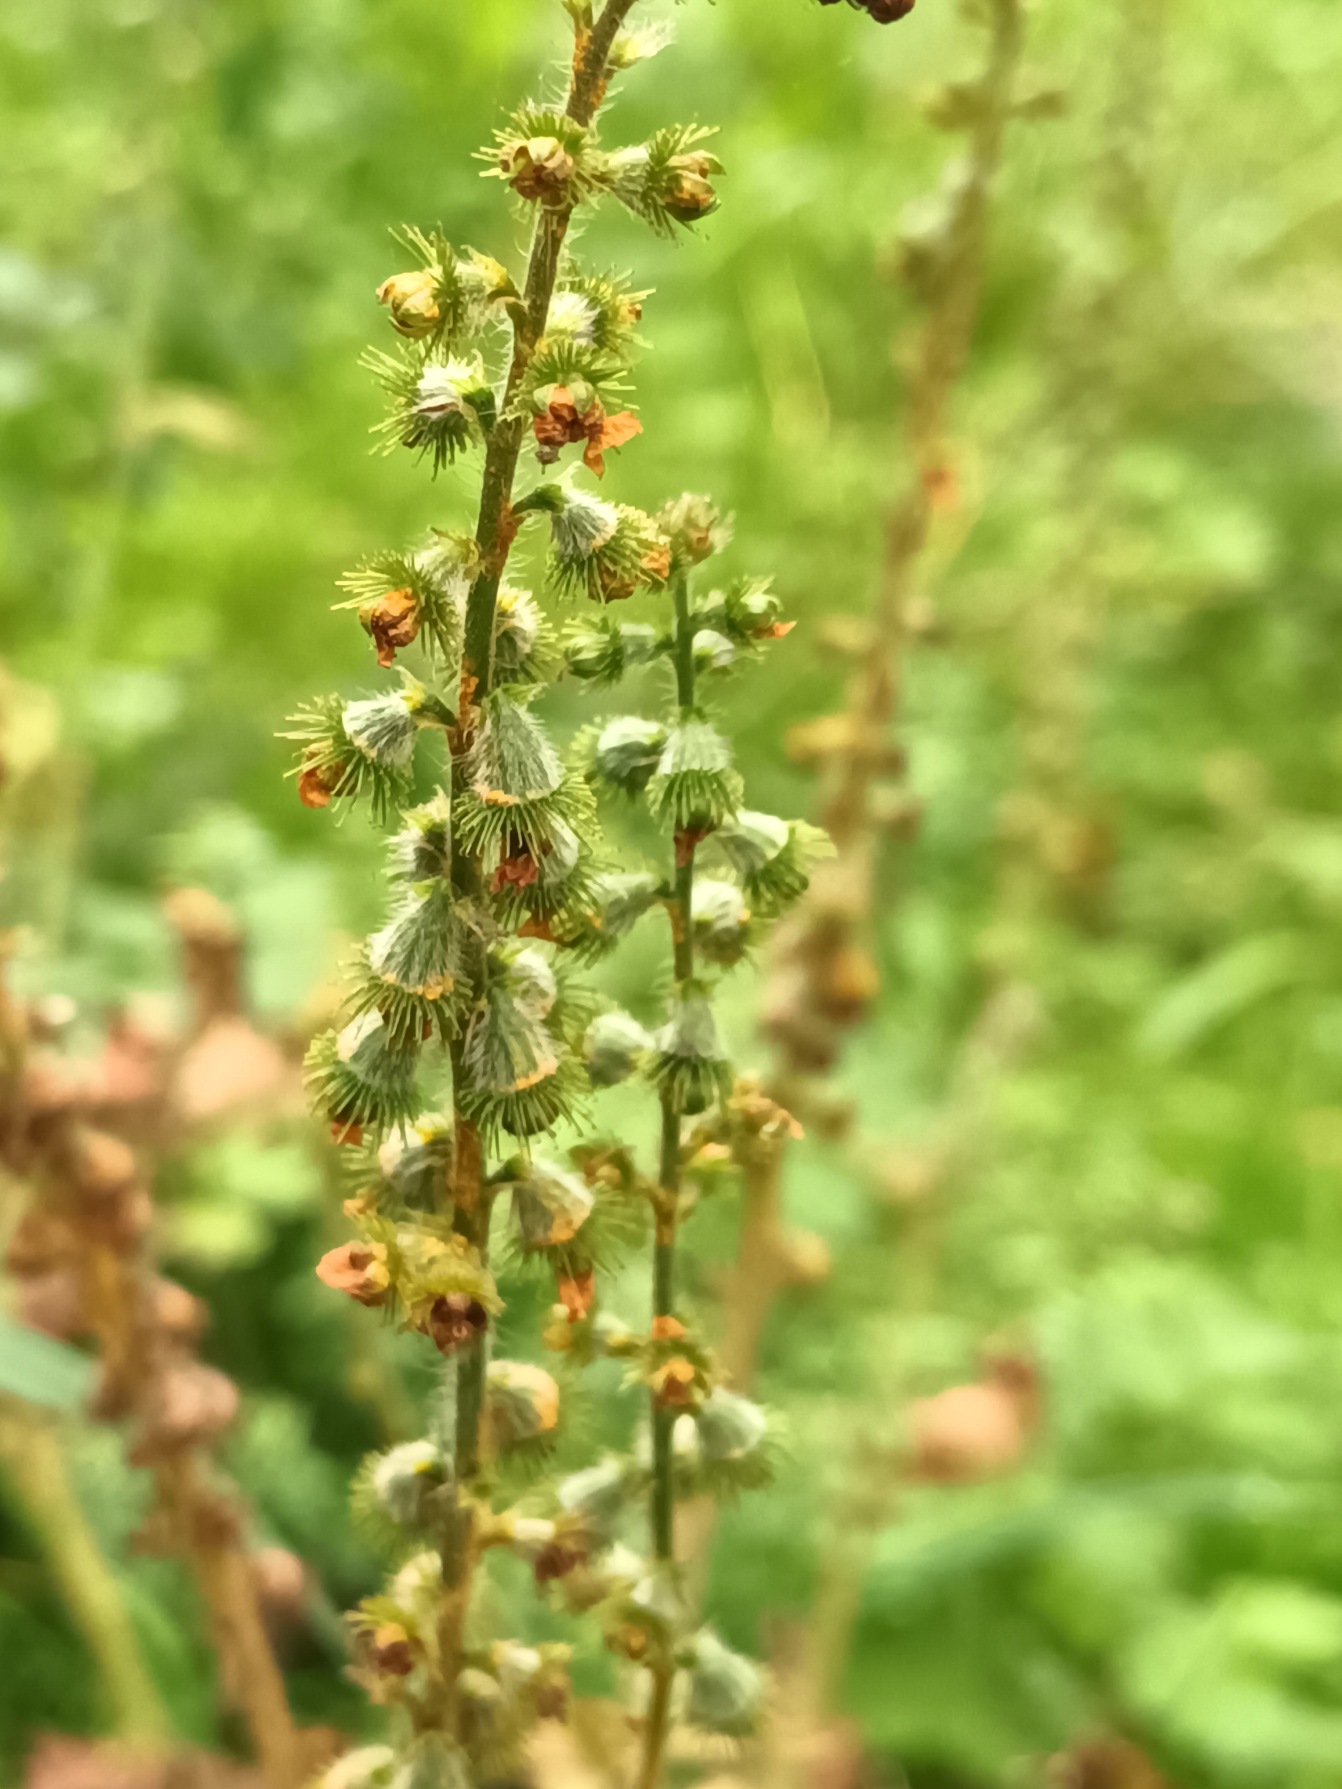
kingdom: Plantae
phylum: Tracheophyta
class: Magnoliopsida
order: Rosales
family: Rosaceae
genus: Agrimonia
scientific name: Agrimonia eupatoria
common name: Almindelig agermåne
